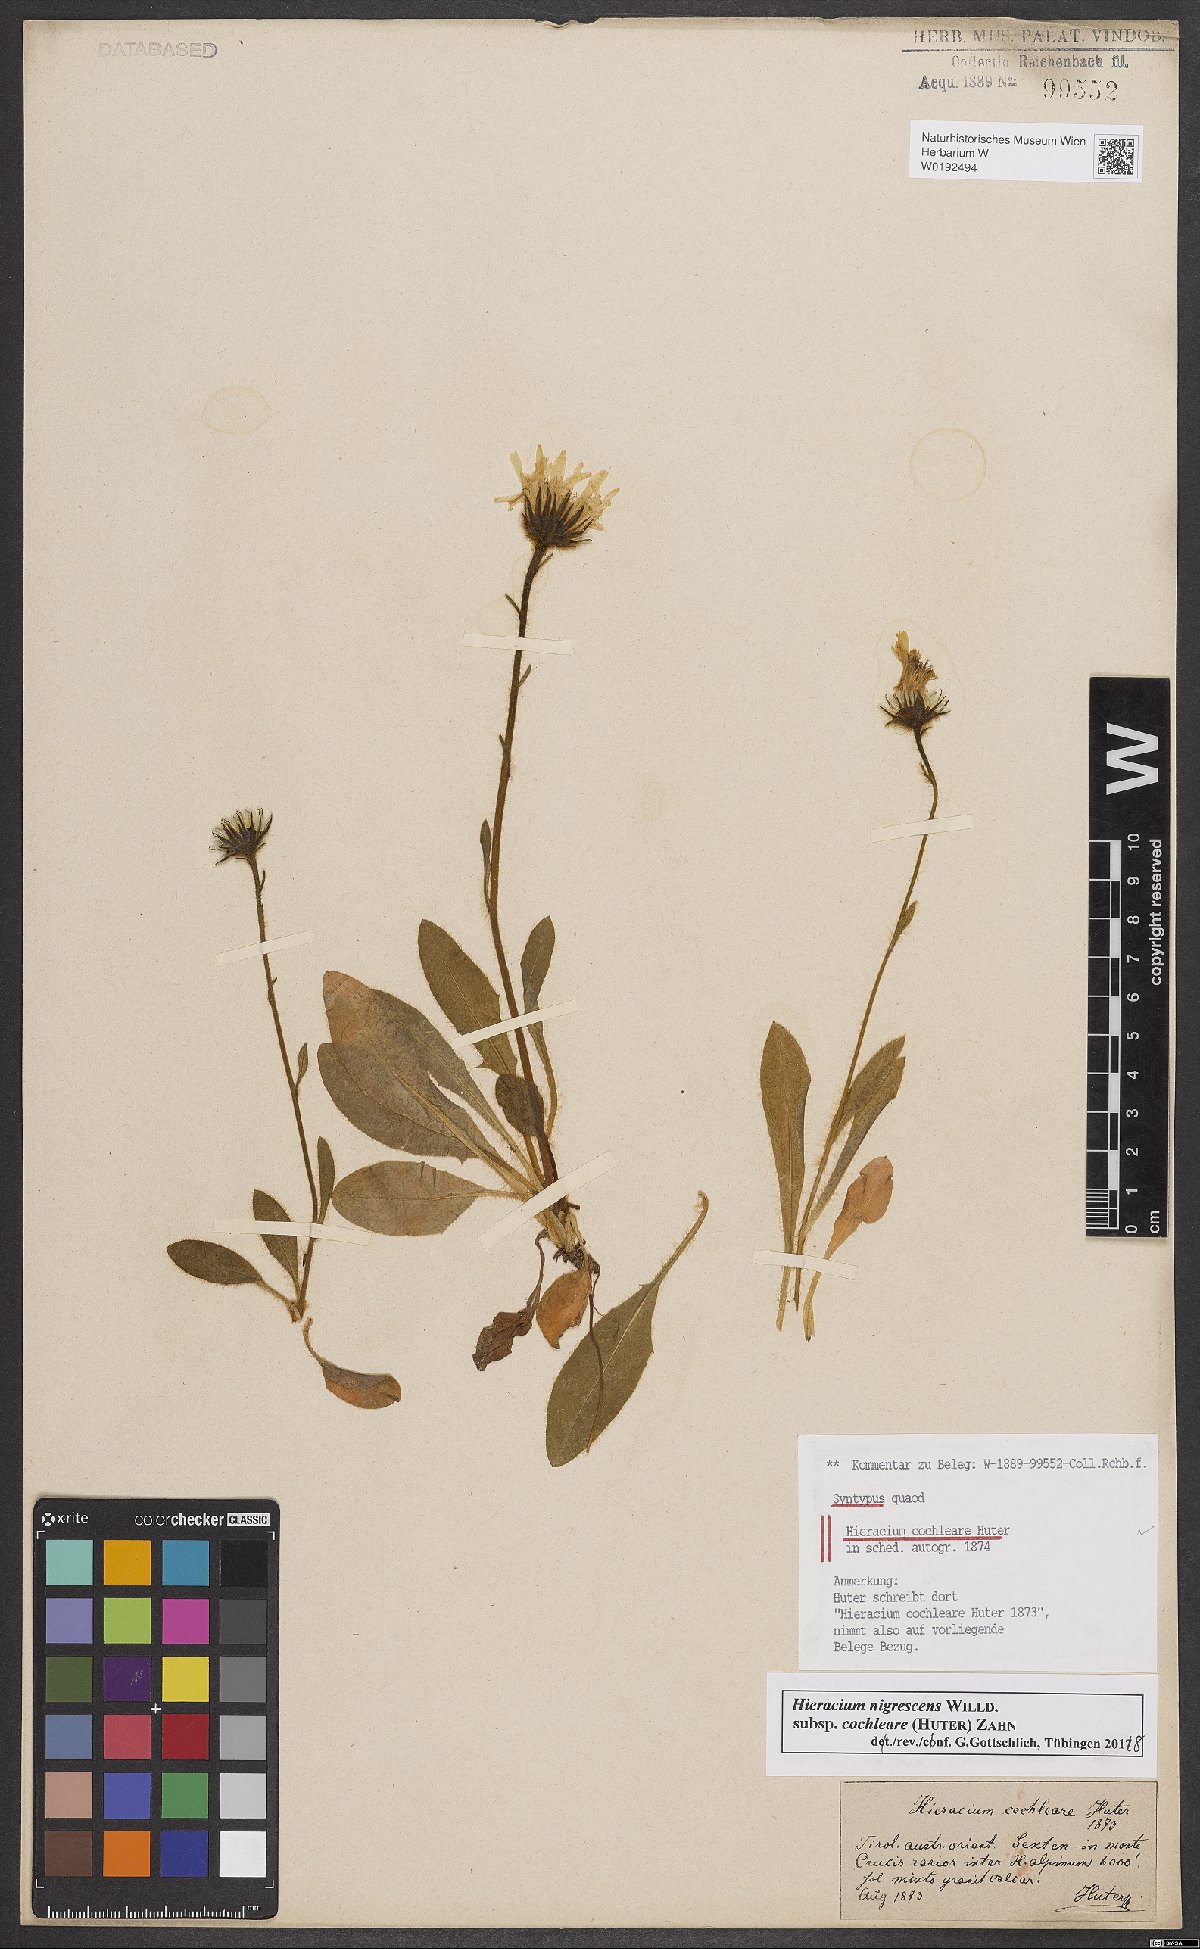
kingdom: Plantae
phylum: Tracheophyta
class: Magnoliopsida
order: Asterales
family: Asteraceae
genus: Hieracium
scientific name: Hieracium nigrescens
